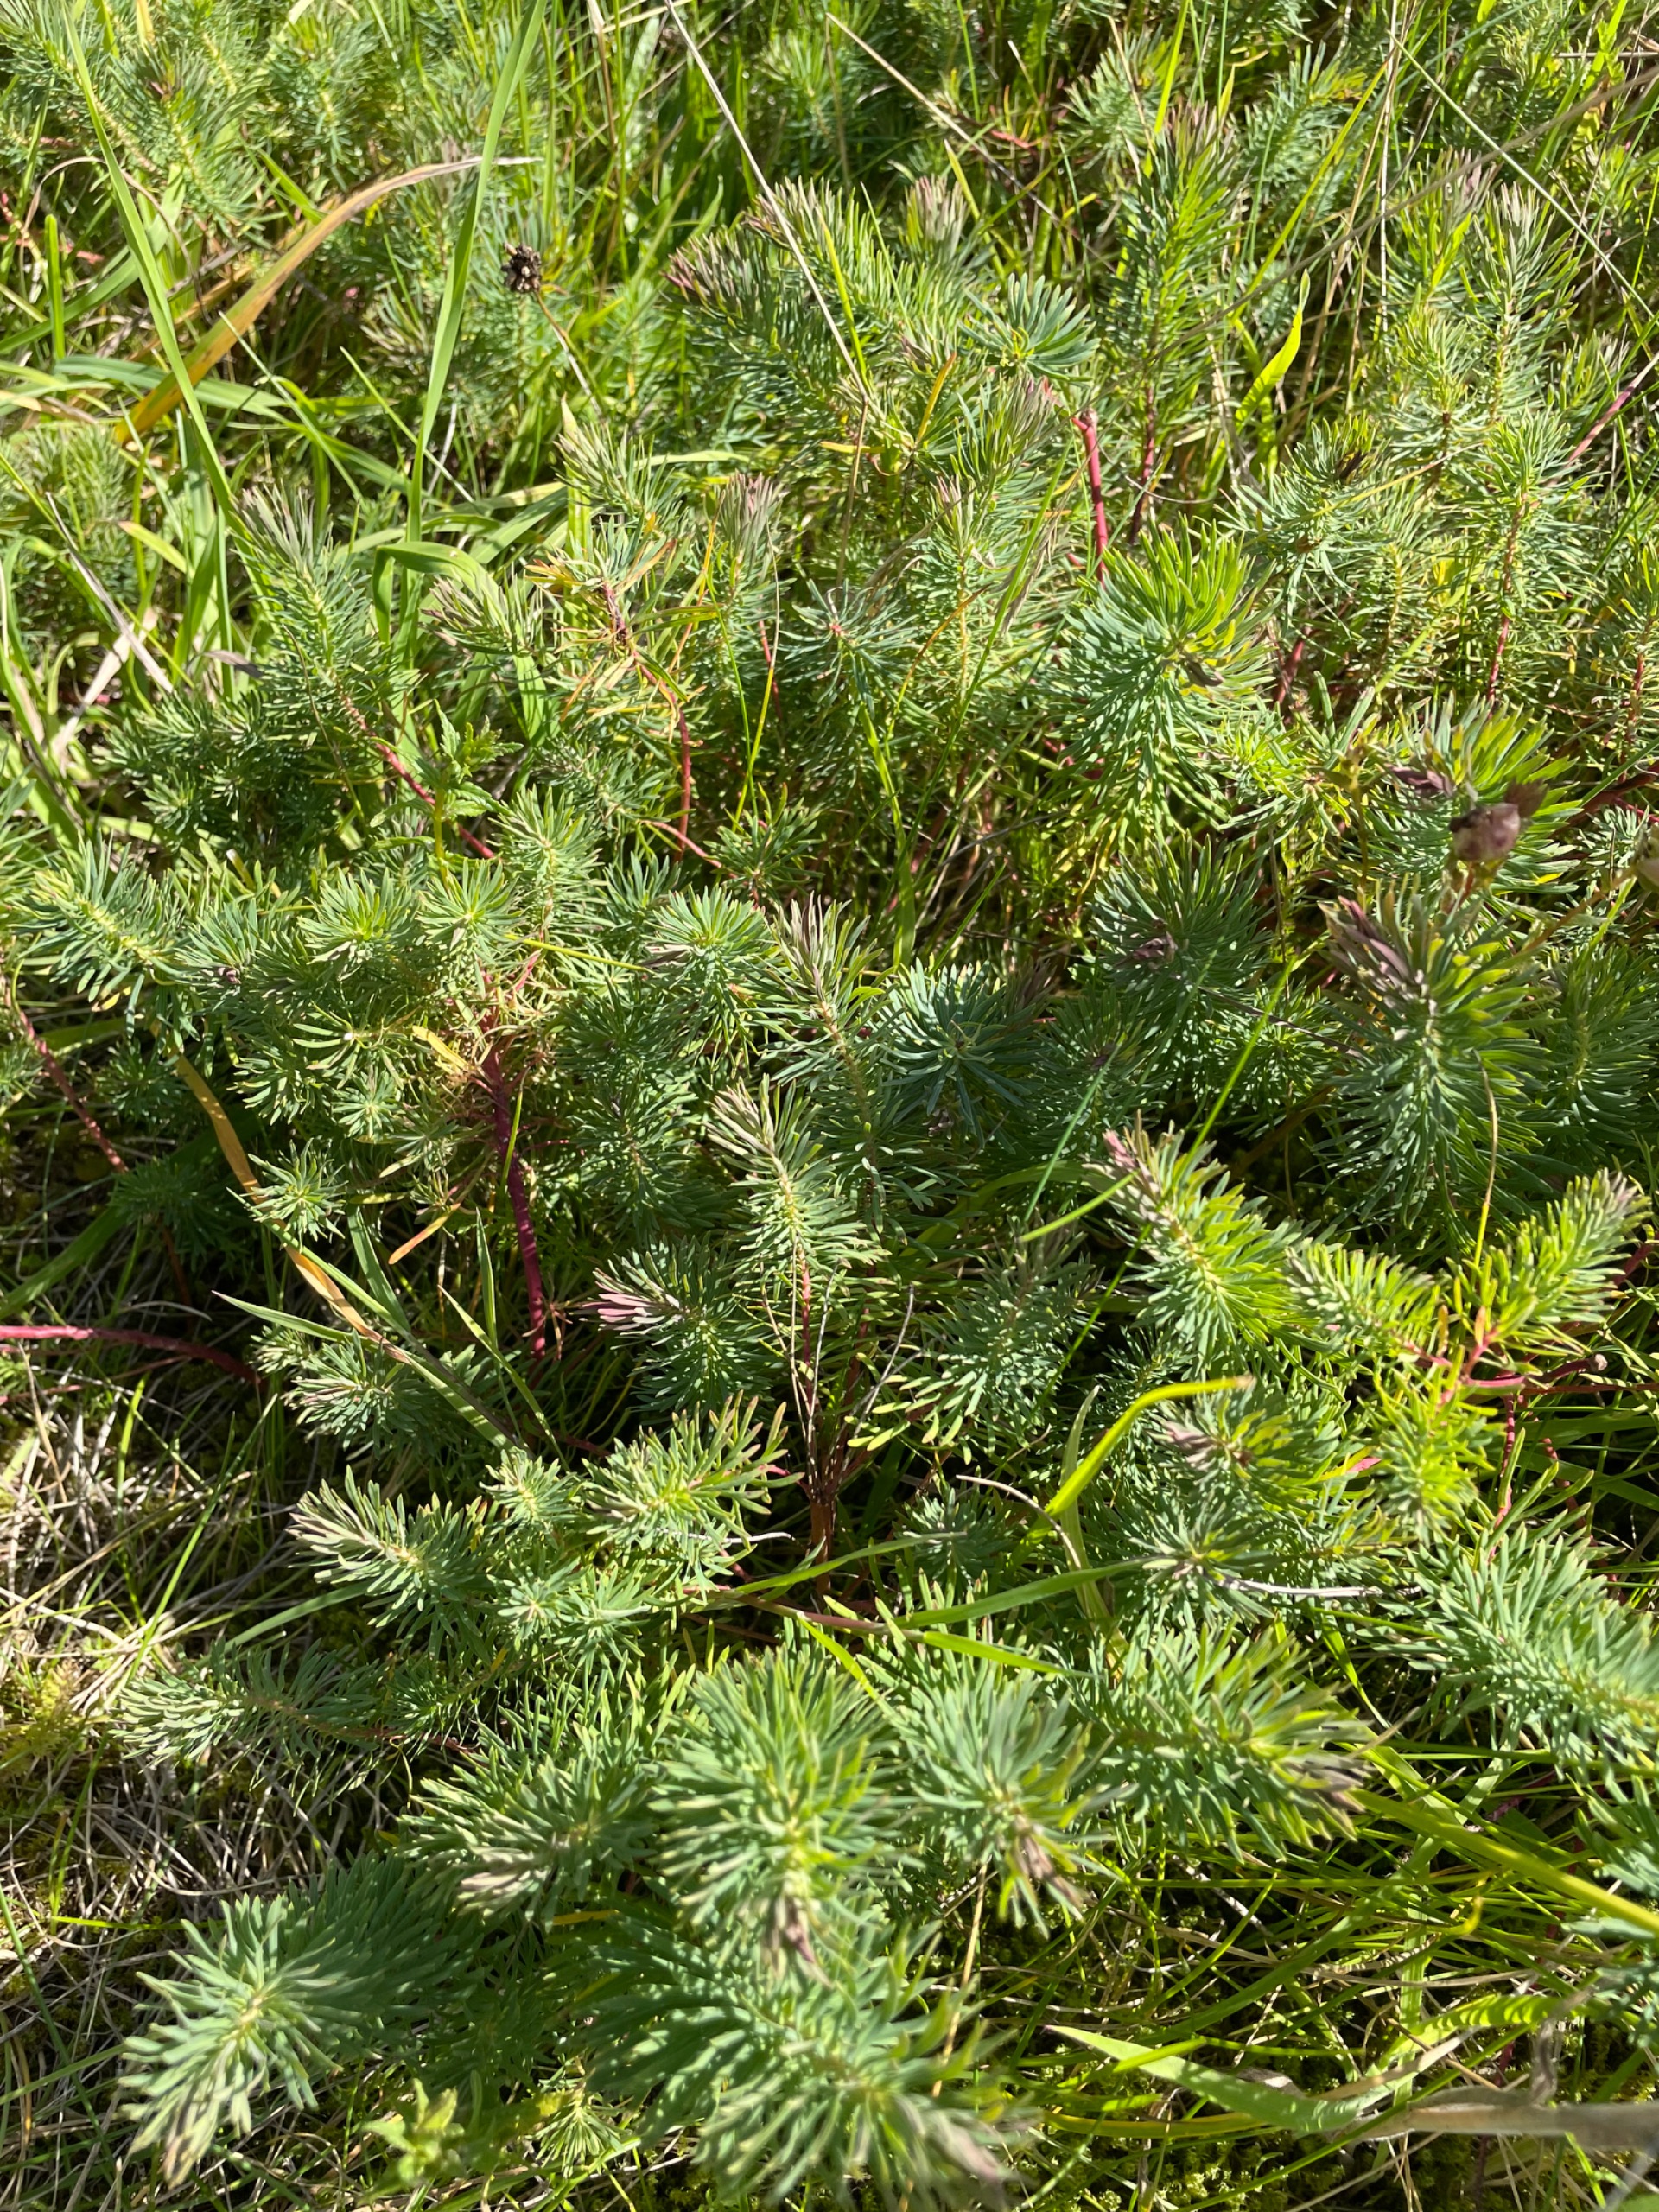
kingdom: Plantae
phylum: Tracheophyta
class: Magnoliopsida
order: Malpighiales
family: Euphorbiaceae
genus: Euphorbia
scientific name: Euphorbia cyparissias
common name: Cypres-vortemælk
